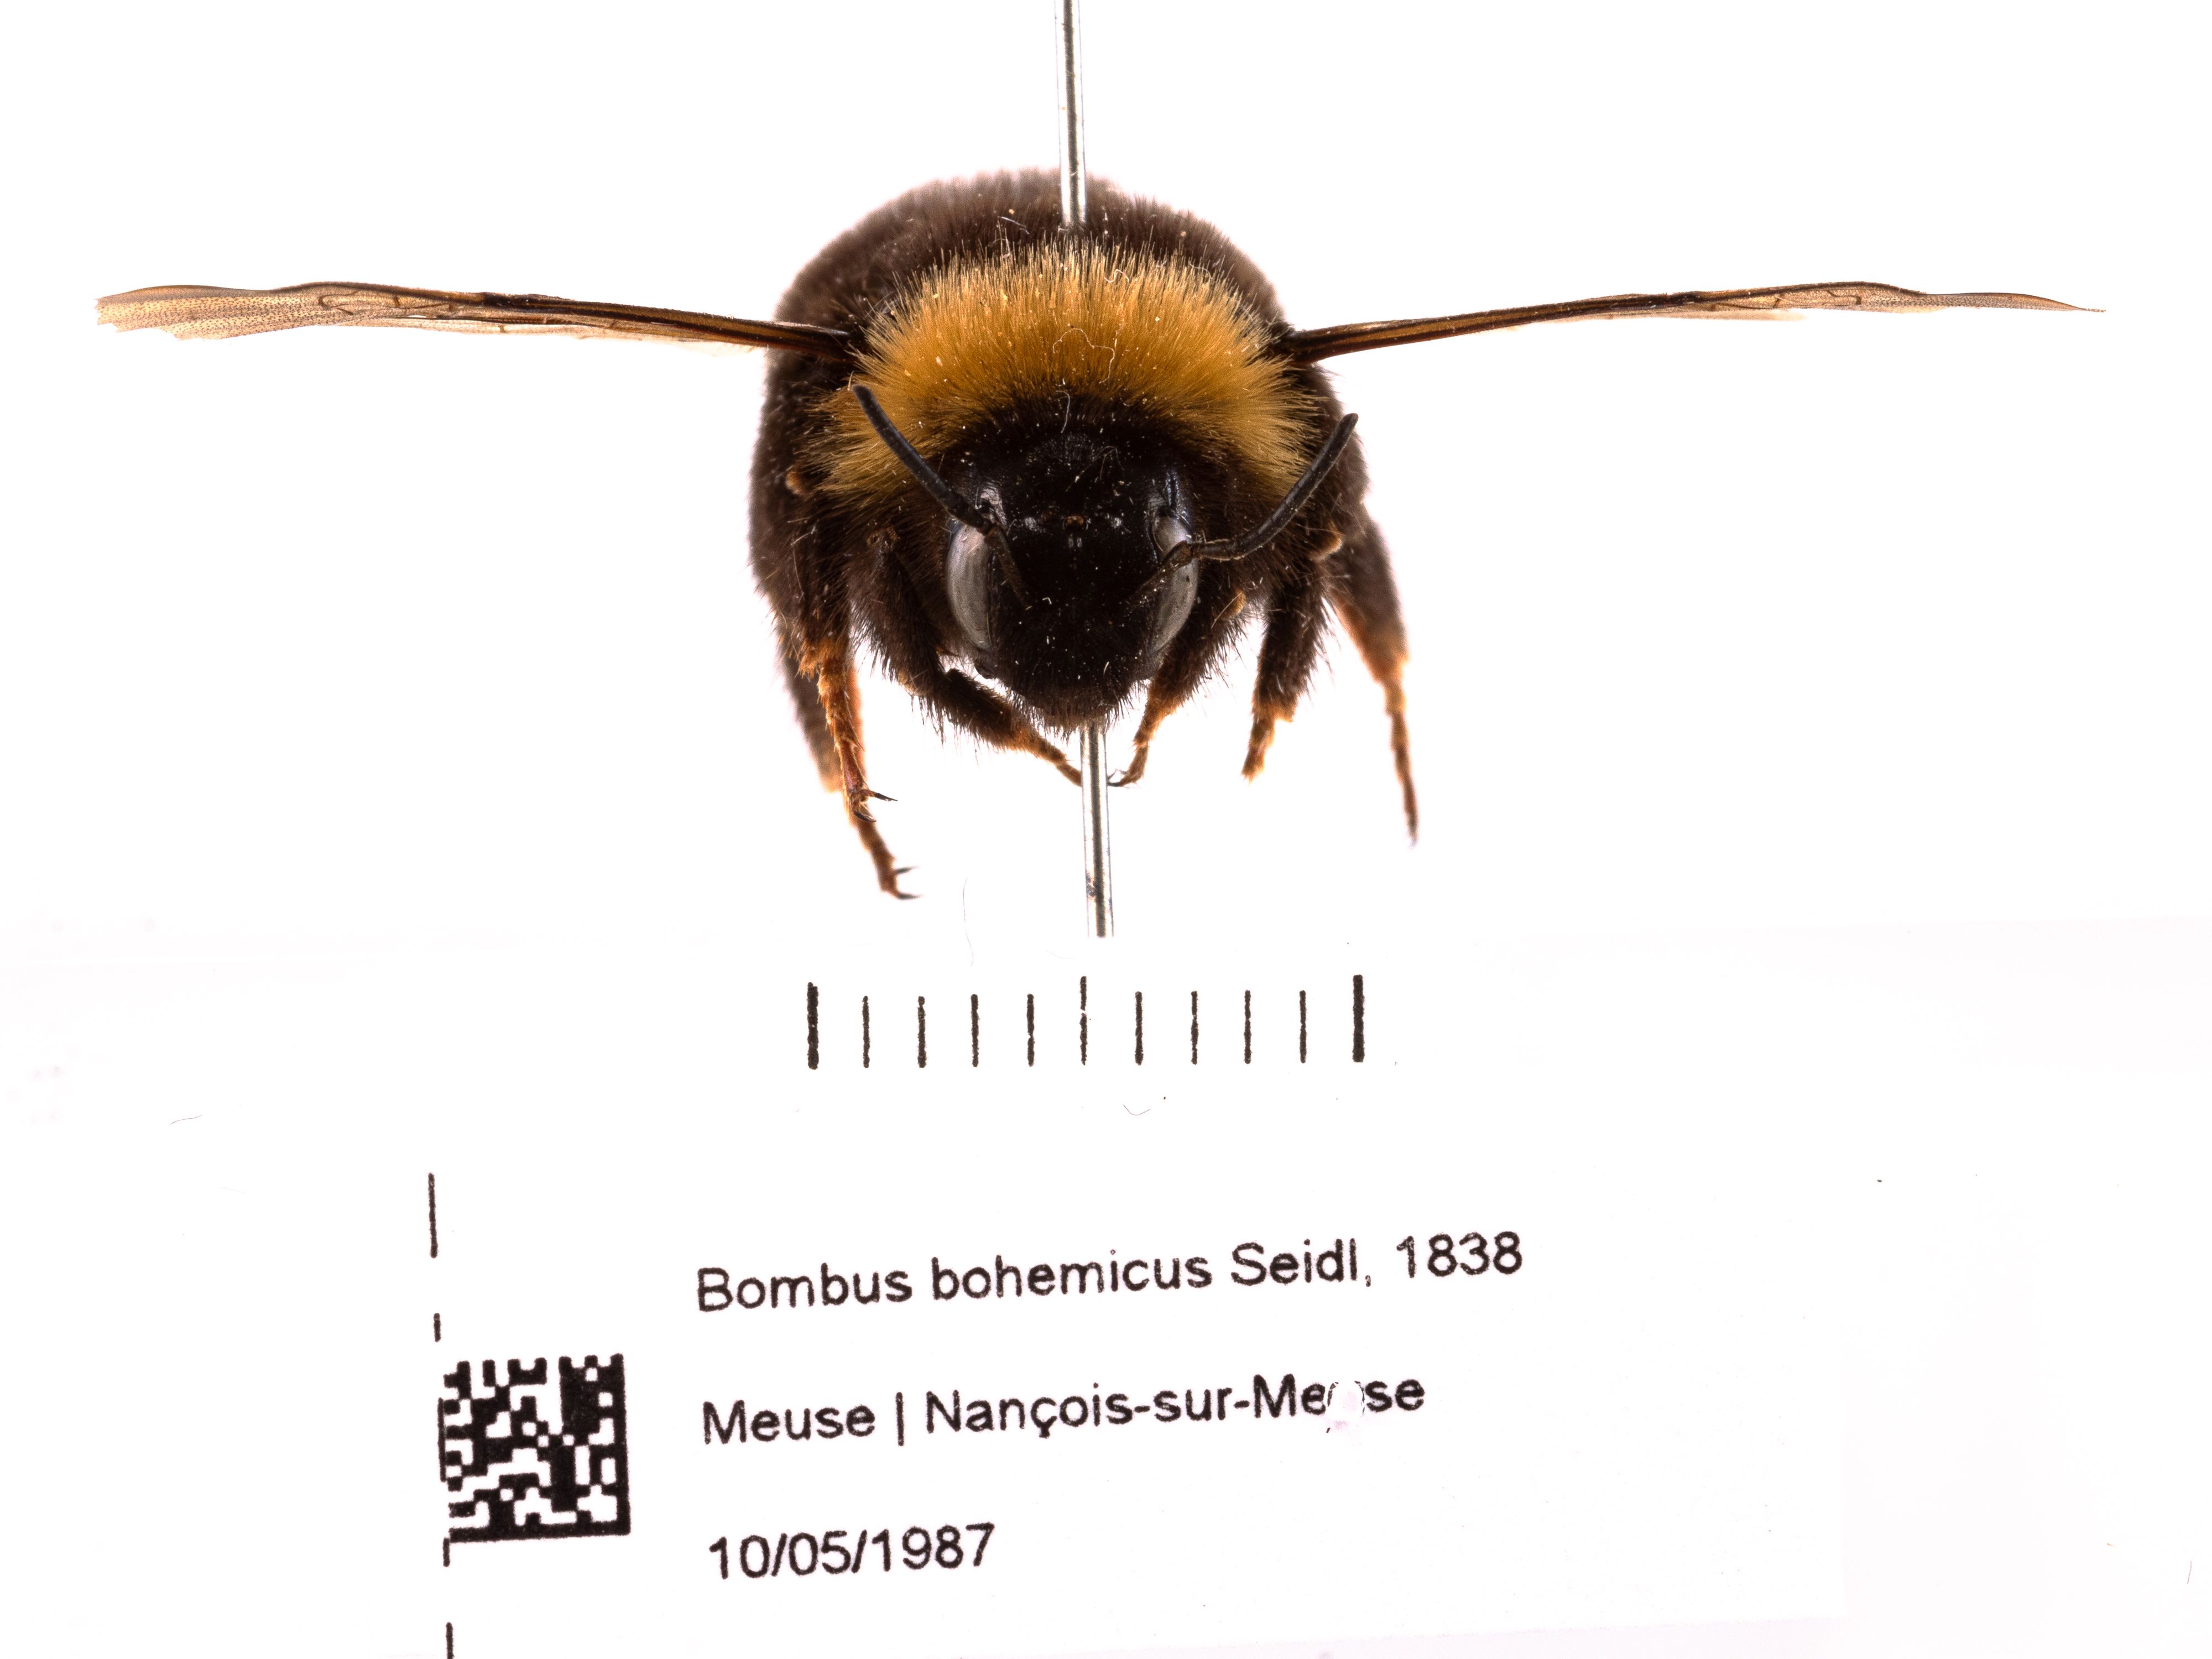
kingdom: Animalia
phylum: Arthropoda
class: Insecta
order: Hymenoptera
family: Apidae
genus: Bombus
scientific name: Bombus bohemicus
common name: Gypsy cuckoo bee
